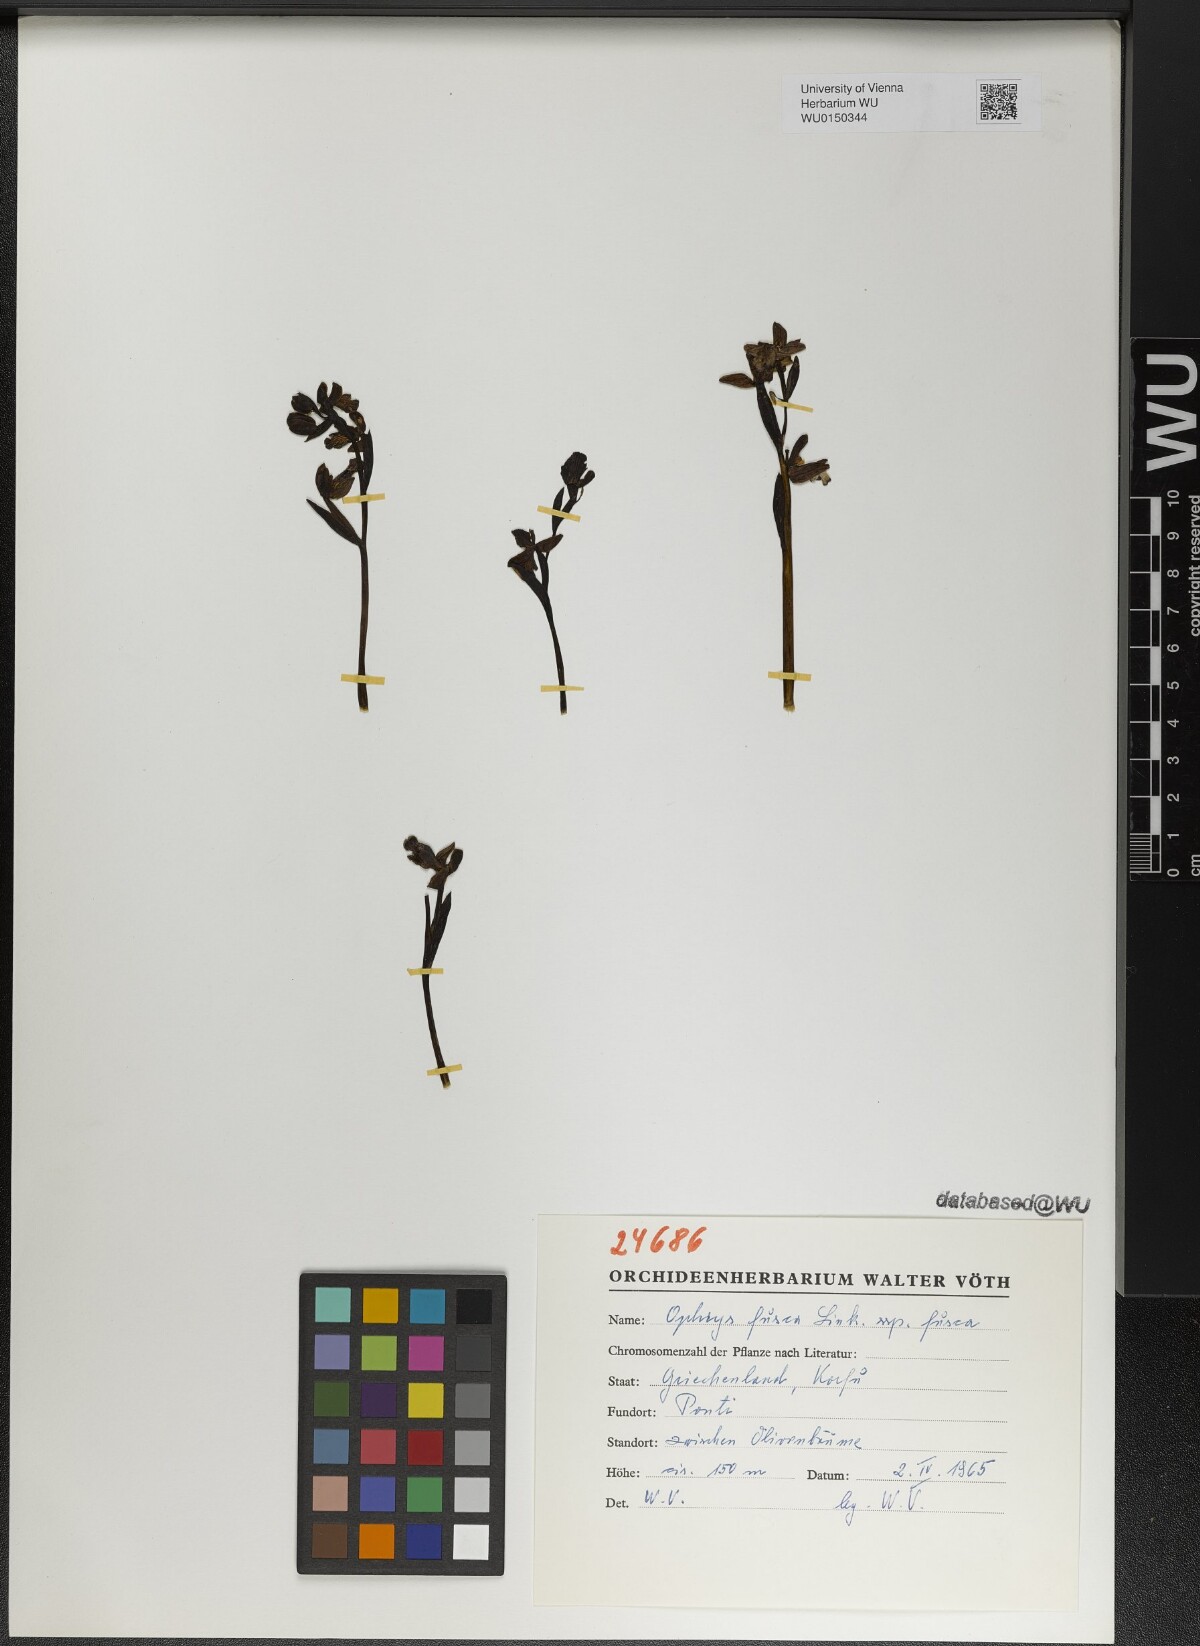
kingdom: Plantae
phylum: Tracheophyta
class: Liliopsida
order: Asparagales
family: Orchidaceae
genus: Ophrys
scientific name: Ophrys fusca
